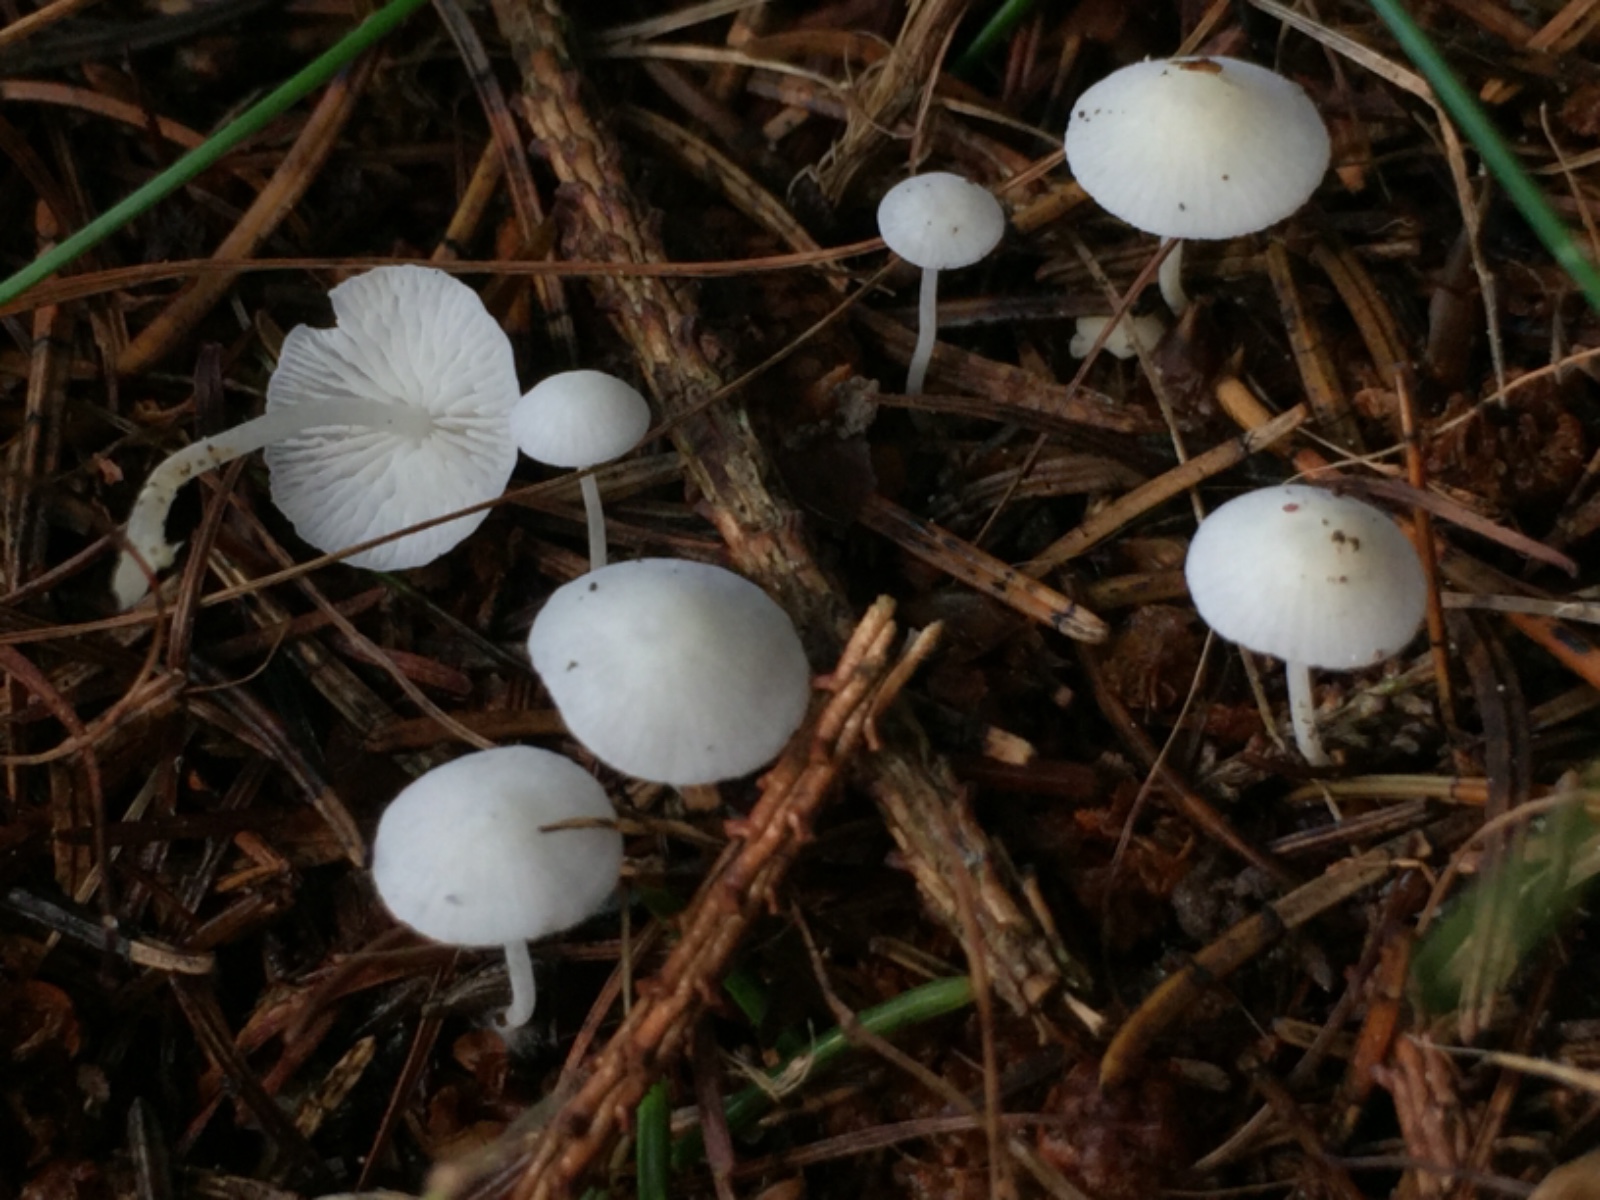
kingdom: Fungi
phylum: Basidiomycota
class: Agaricomycetes
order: Agaricales
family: Mycenaceae
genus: Hemimycena
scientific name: Hemimycena lactea
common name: mælkehvid huesvamp
